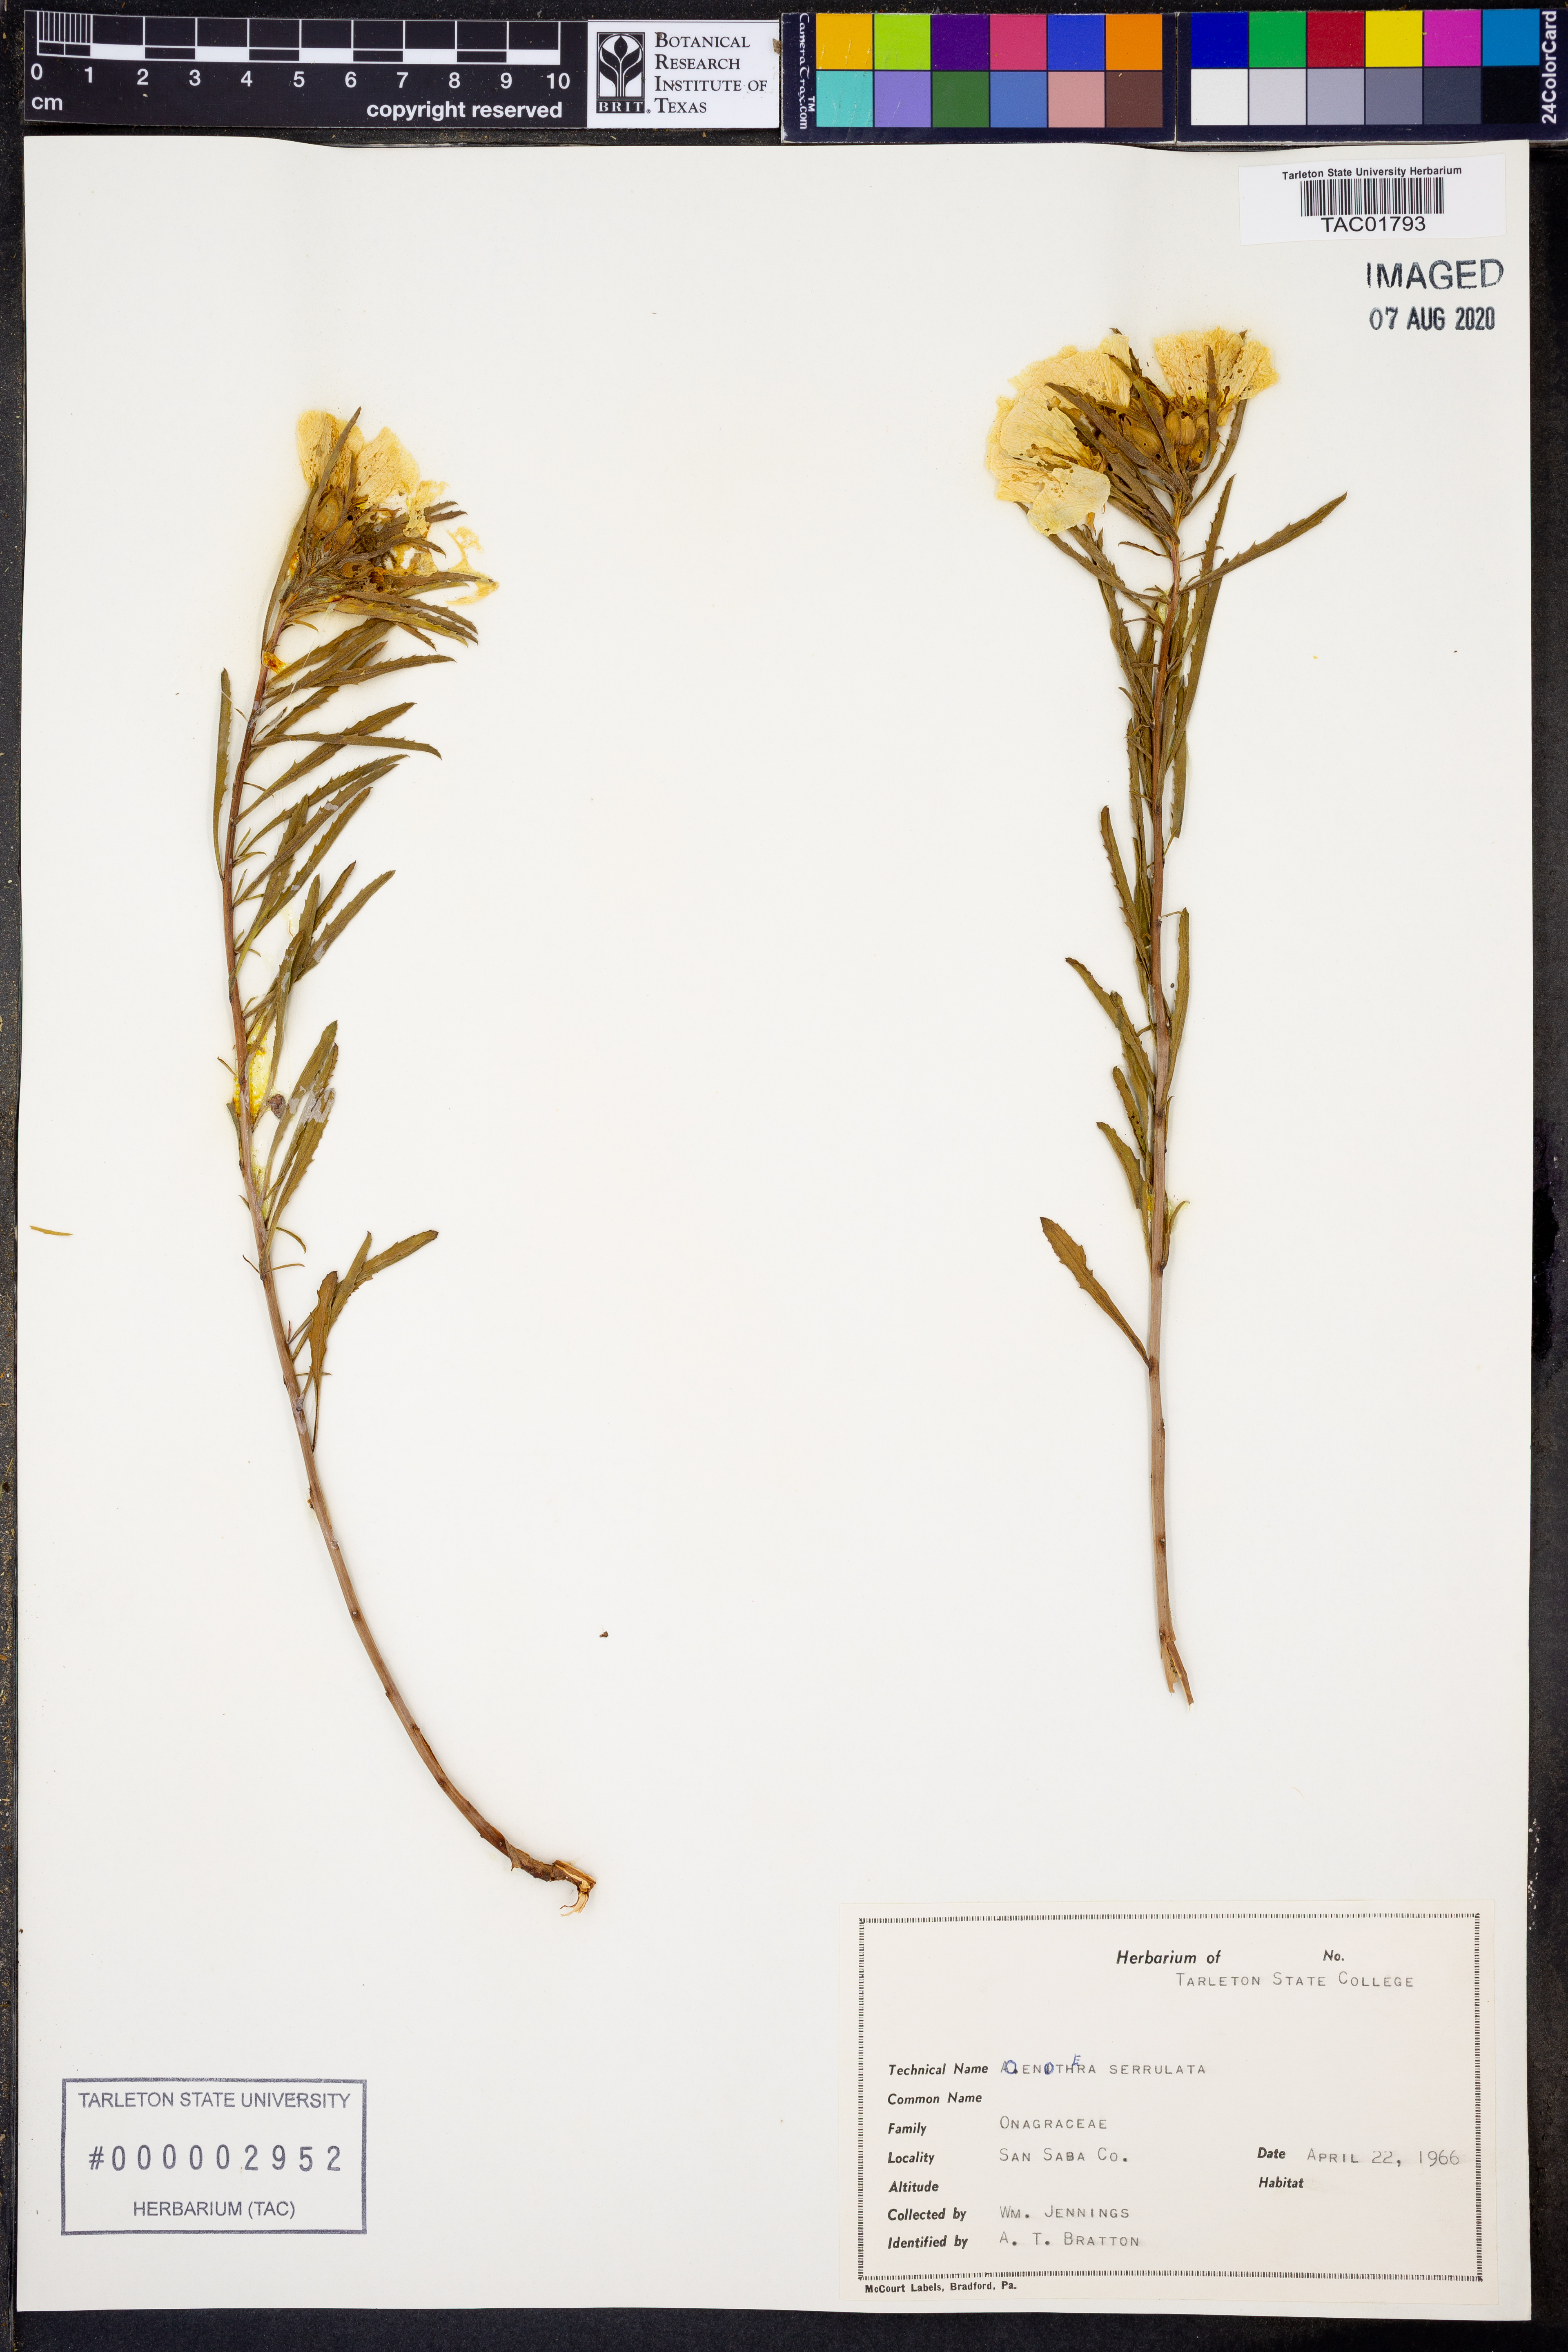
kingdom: Plantae
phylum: Tracheophyta
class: Magnoliopsida
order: Myrtales
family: Onagraceae
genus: Oenothera
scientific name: Oenothera serrulata
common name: Half-shrub calylophus
